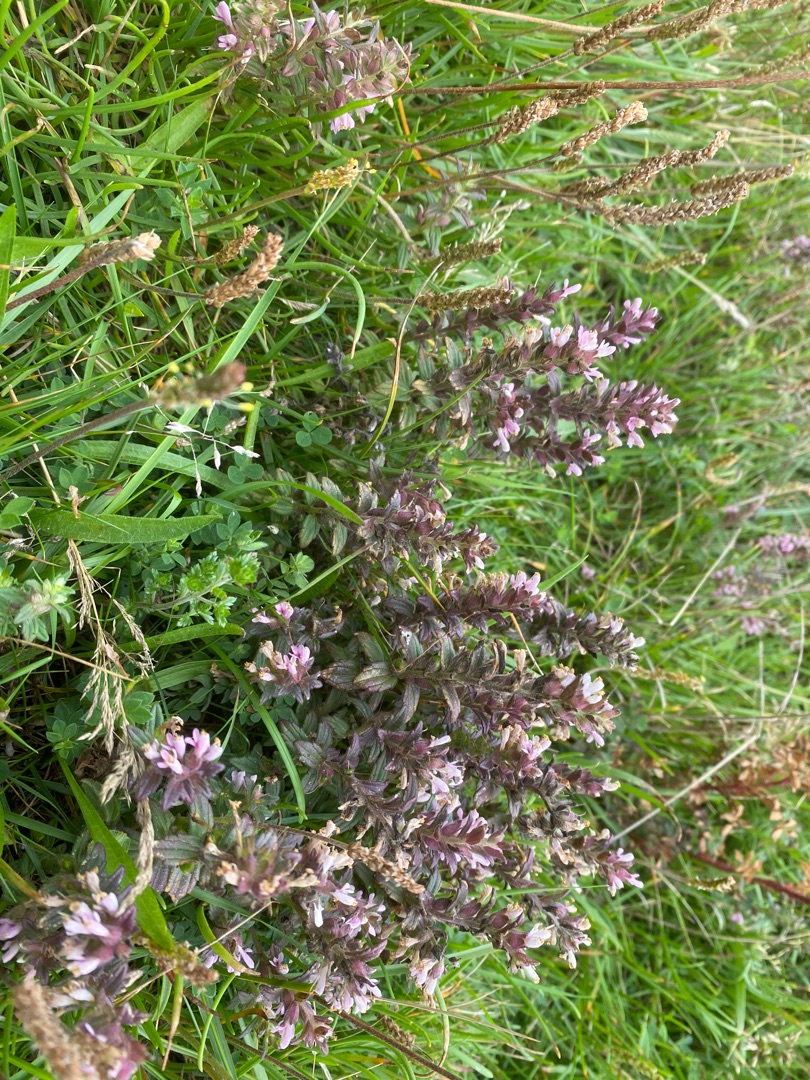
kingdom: Plantae
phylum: Tracheophyta
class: Magnoliopsida
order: Lamiales
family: Orobanchaceae
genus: Odontites
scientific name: Odontites vernus
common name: Mark-rødtop
